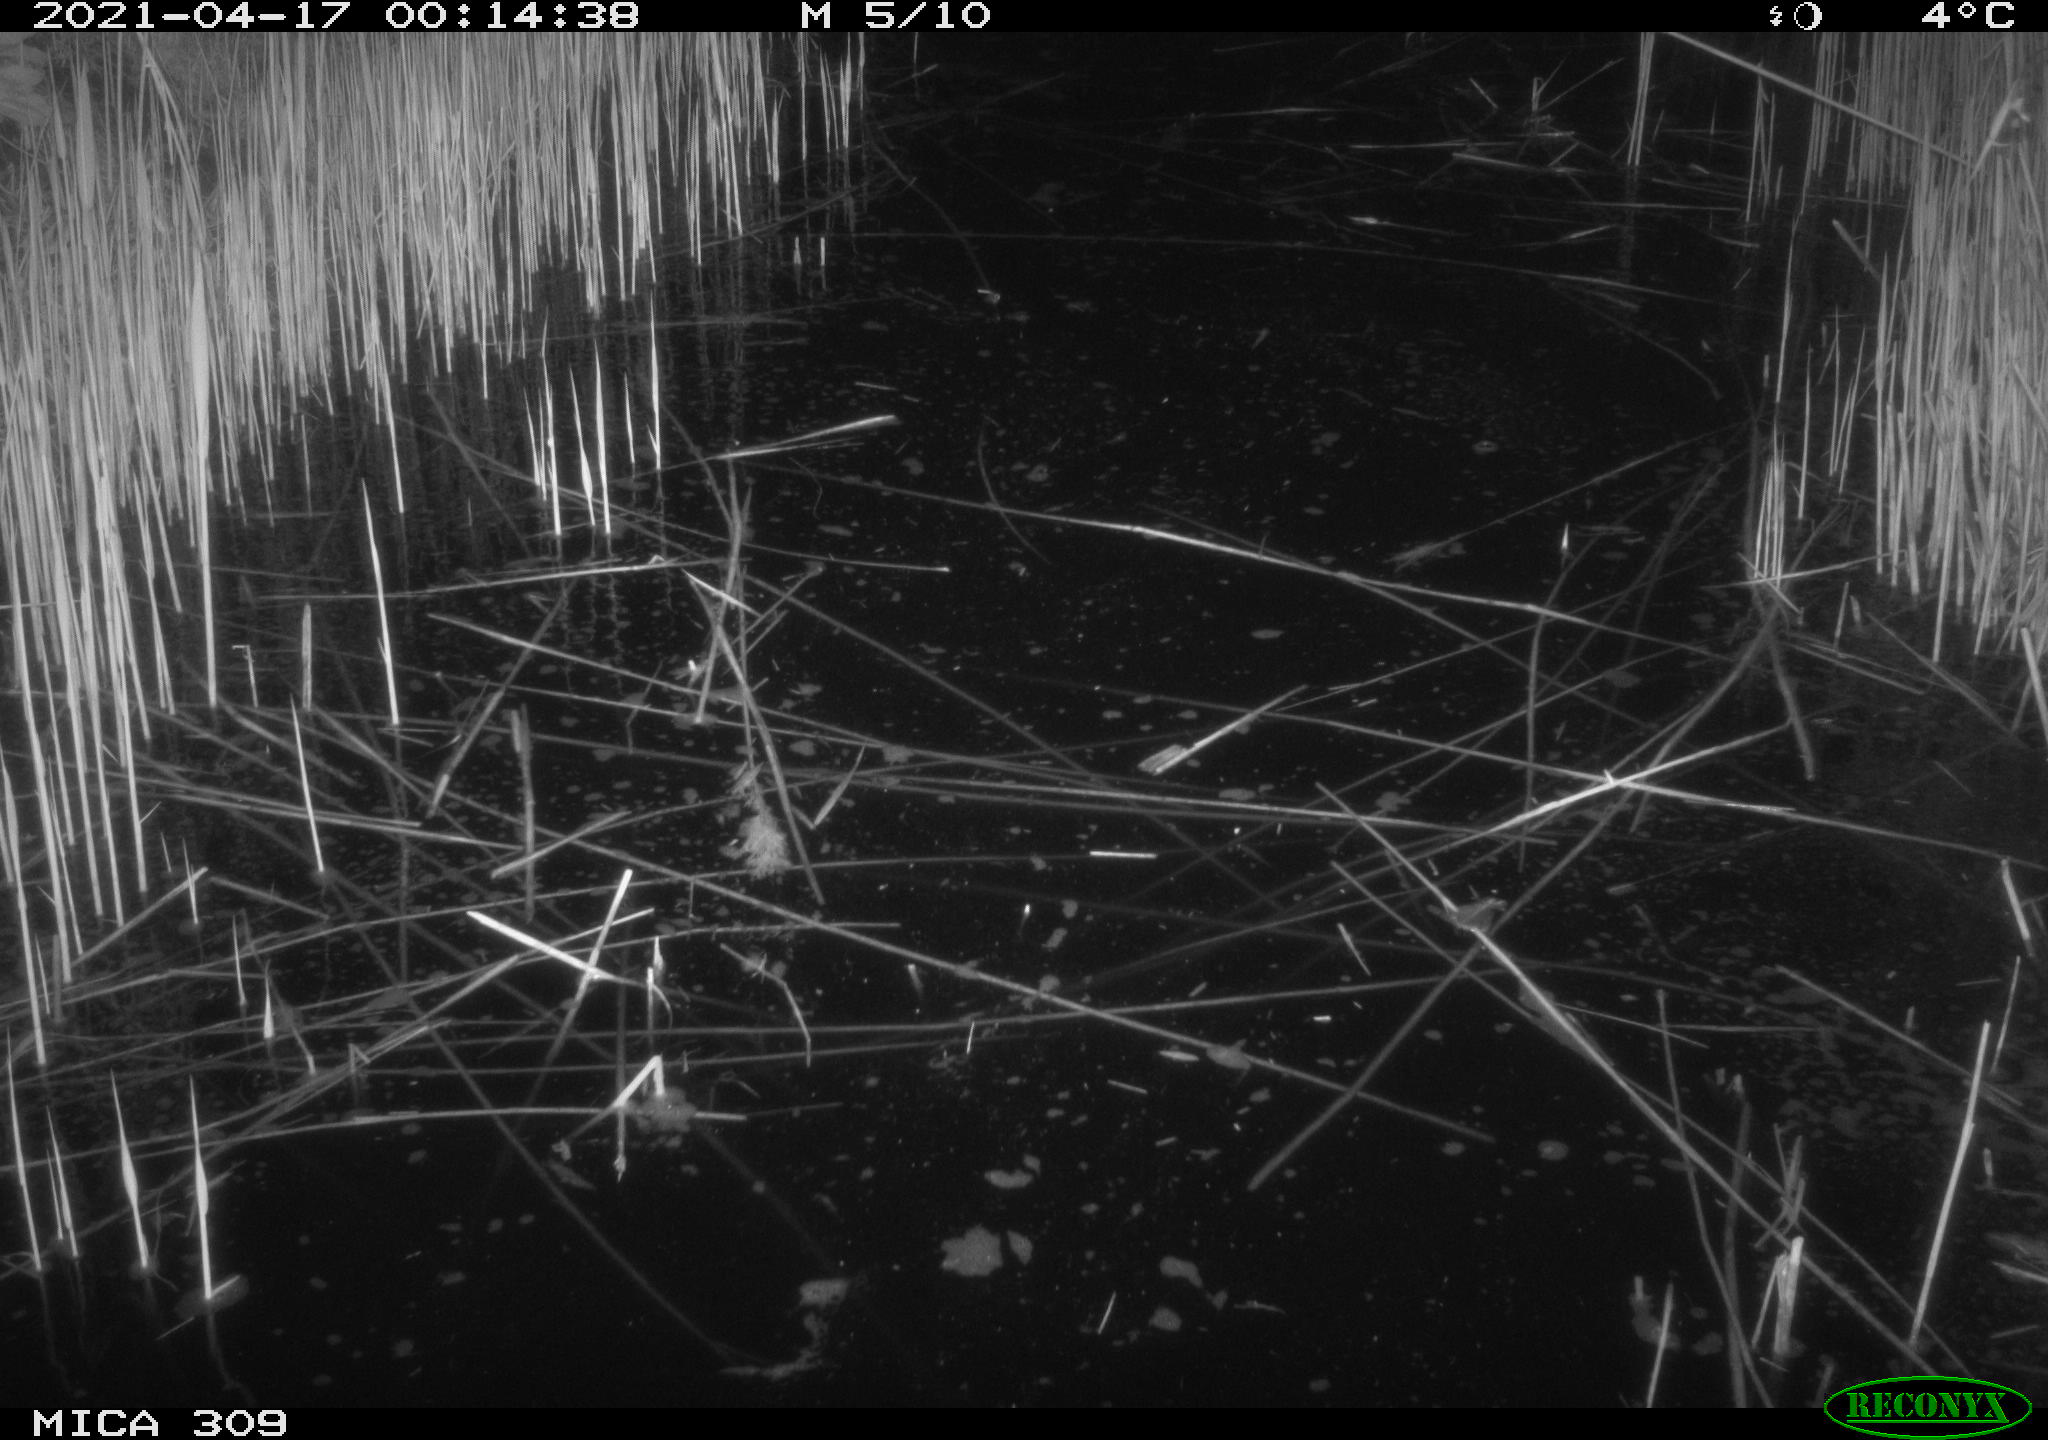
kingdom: Animalia
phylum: Chordata
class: Aves
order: Anseriformes
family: Anatidae
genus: Anas
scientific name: Anas platyrhynchos
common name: Mallard
